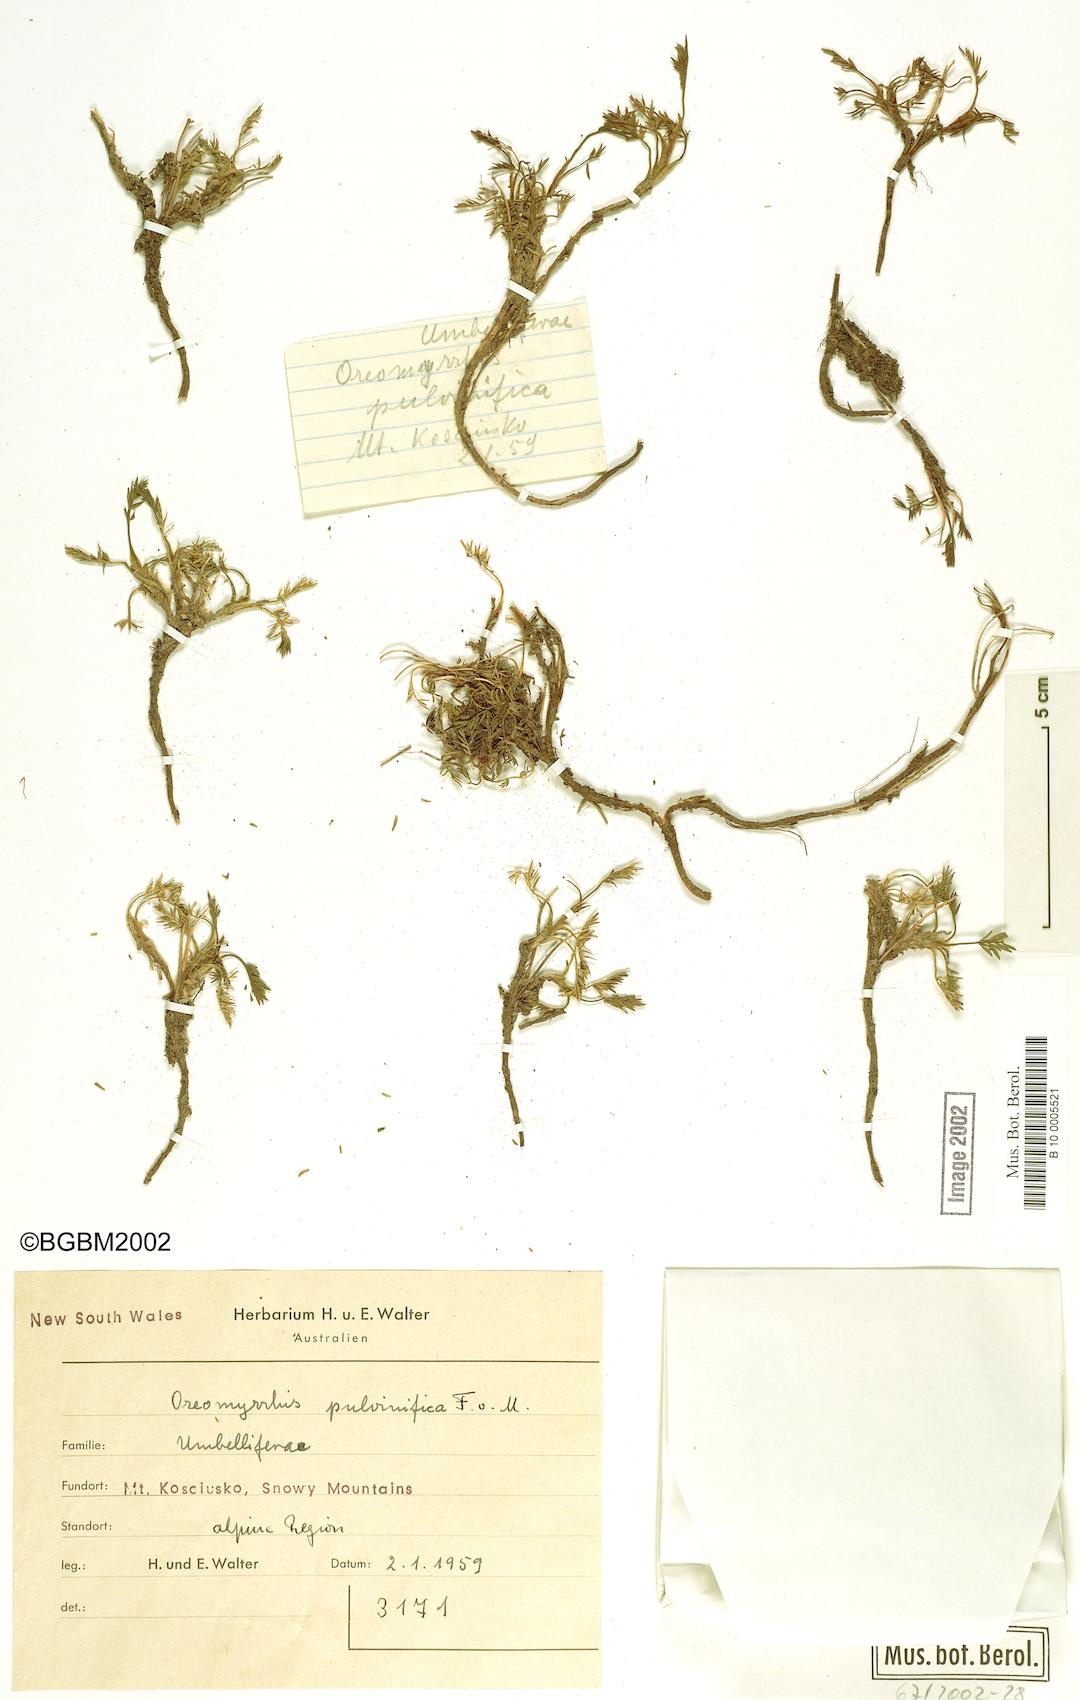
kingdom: Plantae
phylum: Tracheophyta
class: Magnoliopsida
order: Apiales
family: Apiaceae
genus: Chaerophyllum
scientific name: Chaerophyllum pulvinificum
